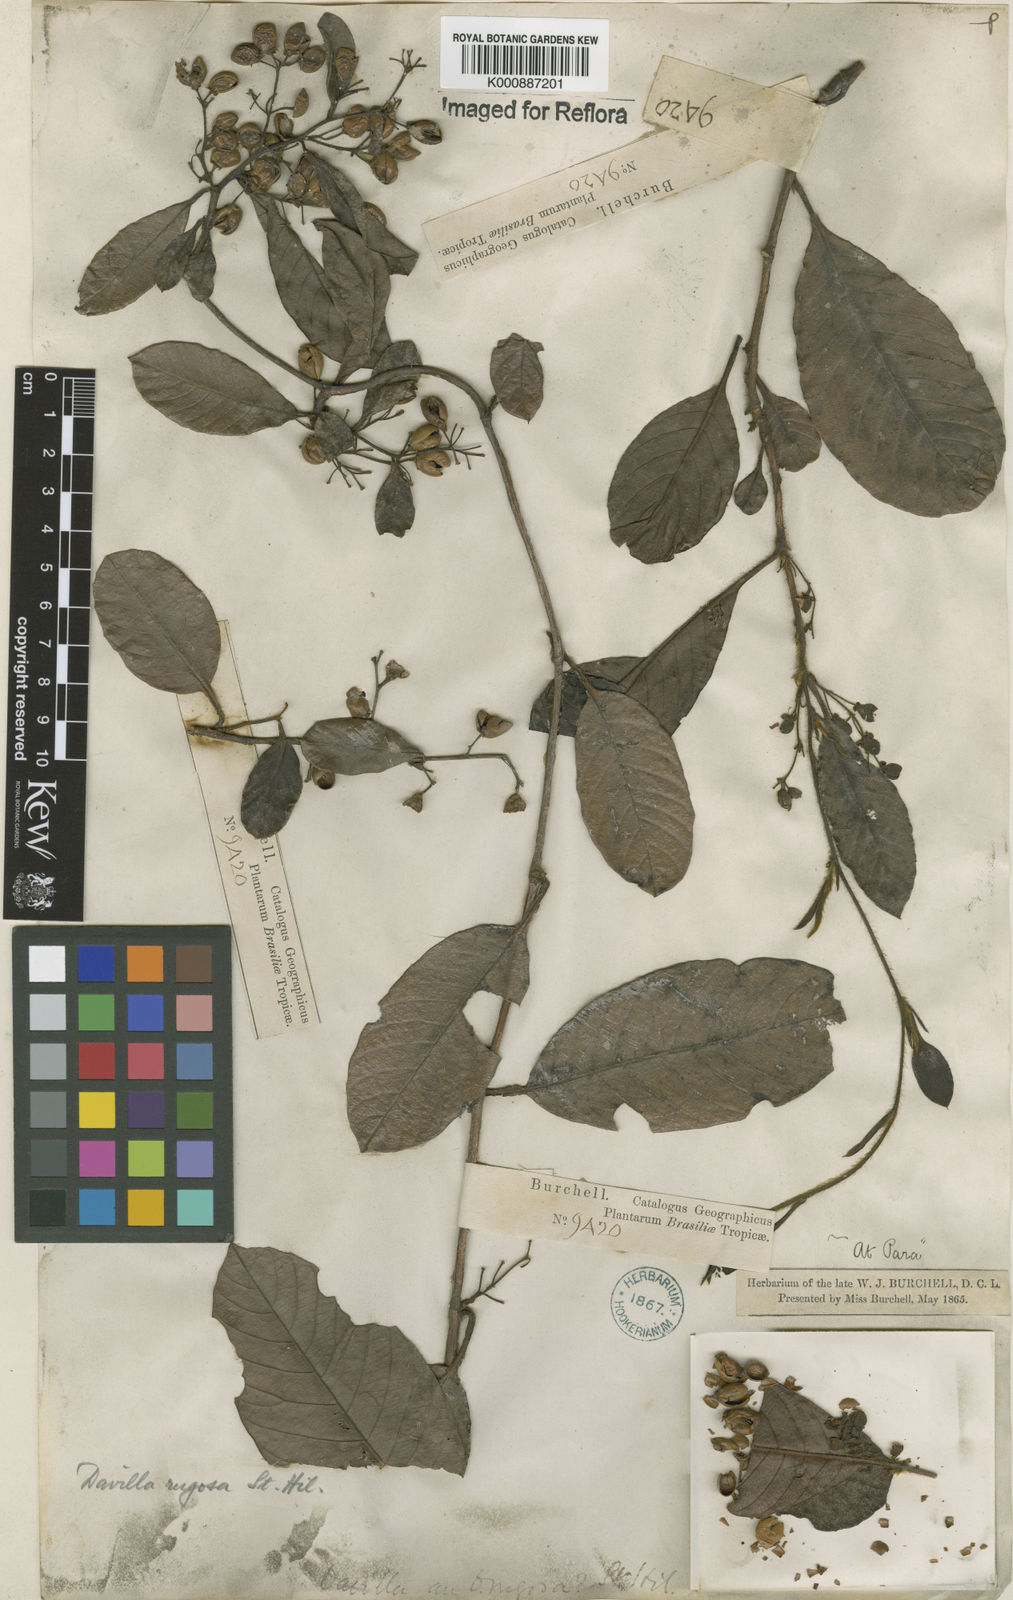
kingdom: Plantae
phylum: Tracheophyta
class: Magnoliopsida
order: Dilleniales
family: Dilleniaceae
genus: Davilla
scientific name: Davilla rugosa
